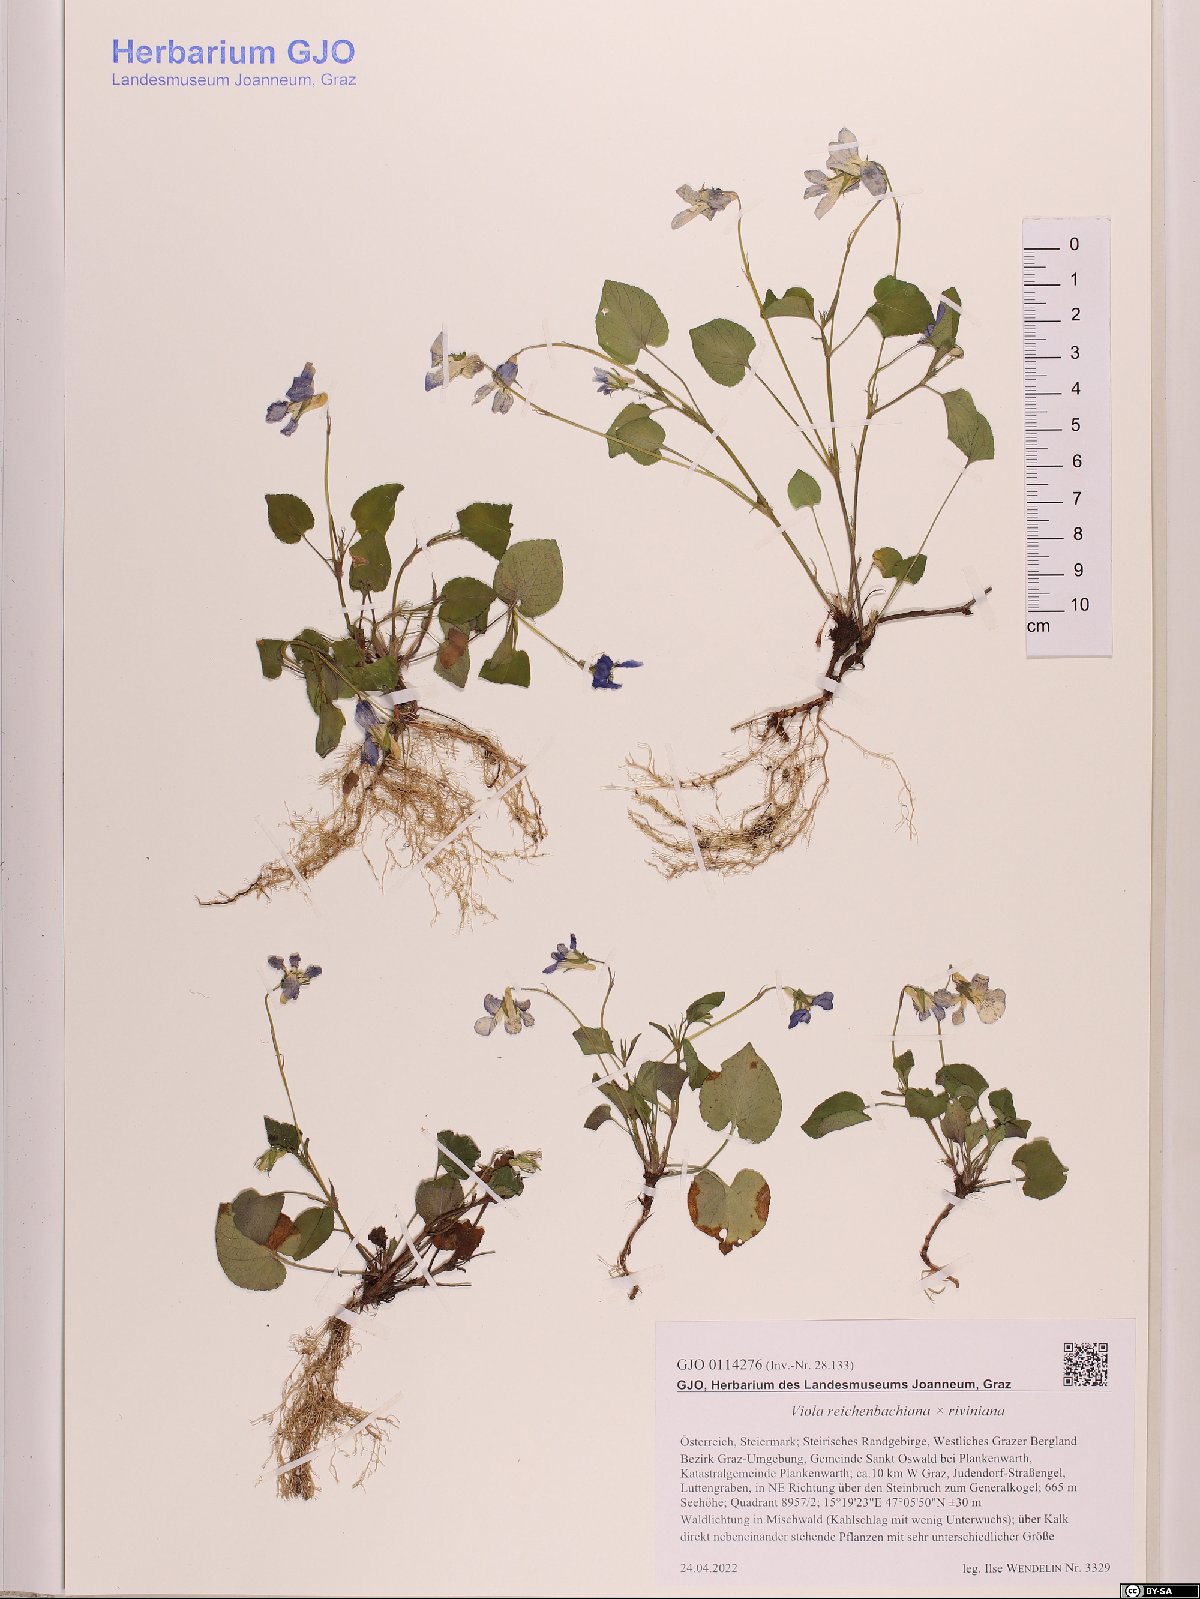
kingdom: Plantae
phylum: Tracheophyta
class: Magnoliopsida
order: Malpighiales
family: Violaceae
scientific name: Violaceae
